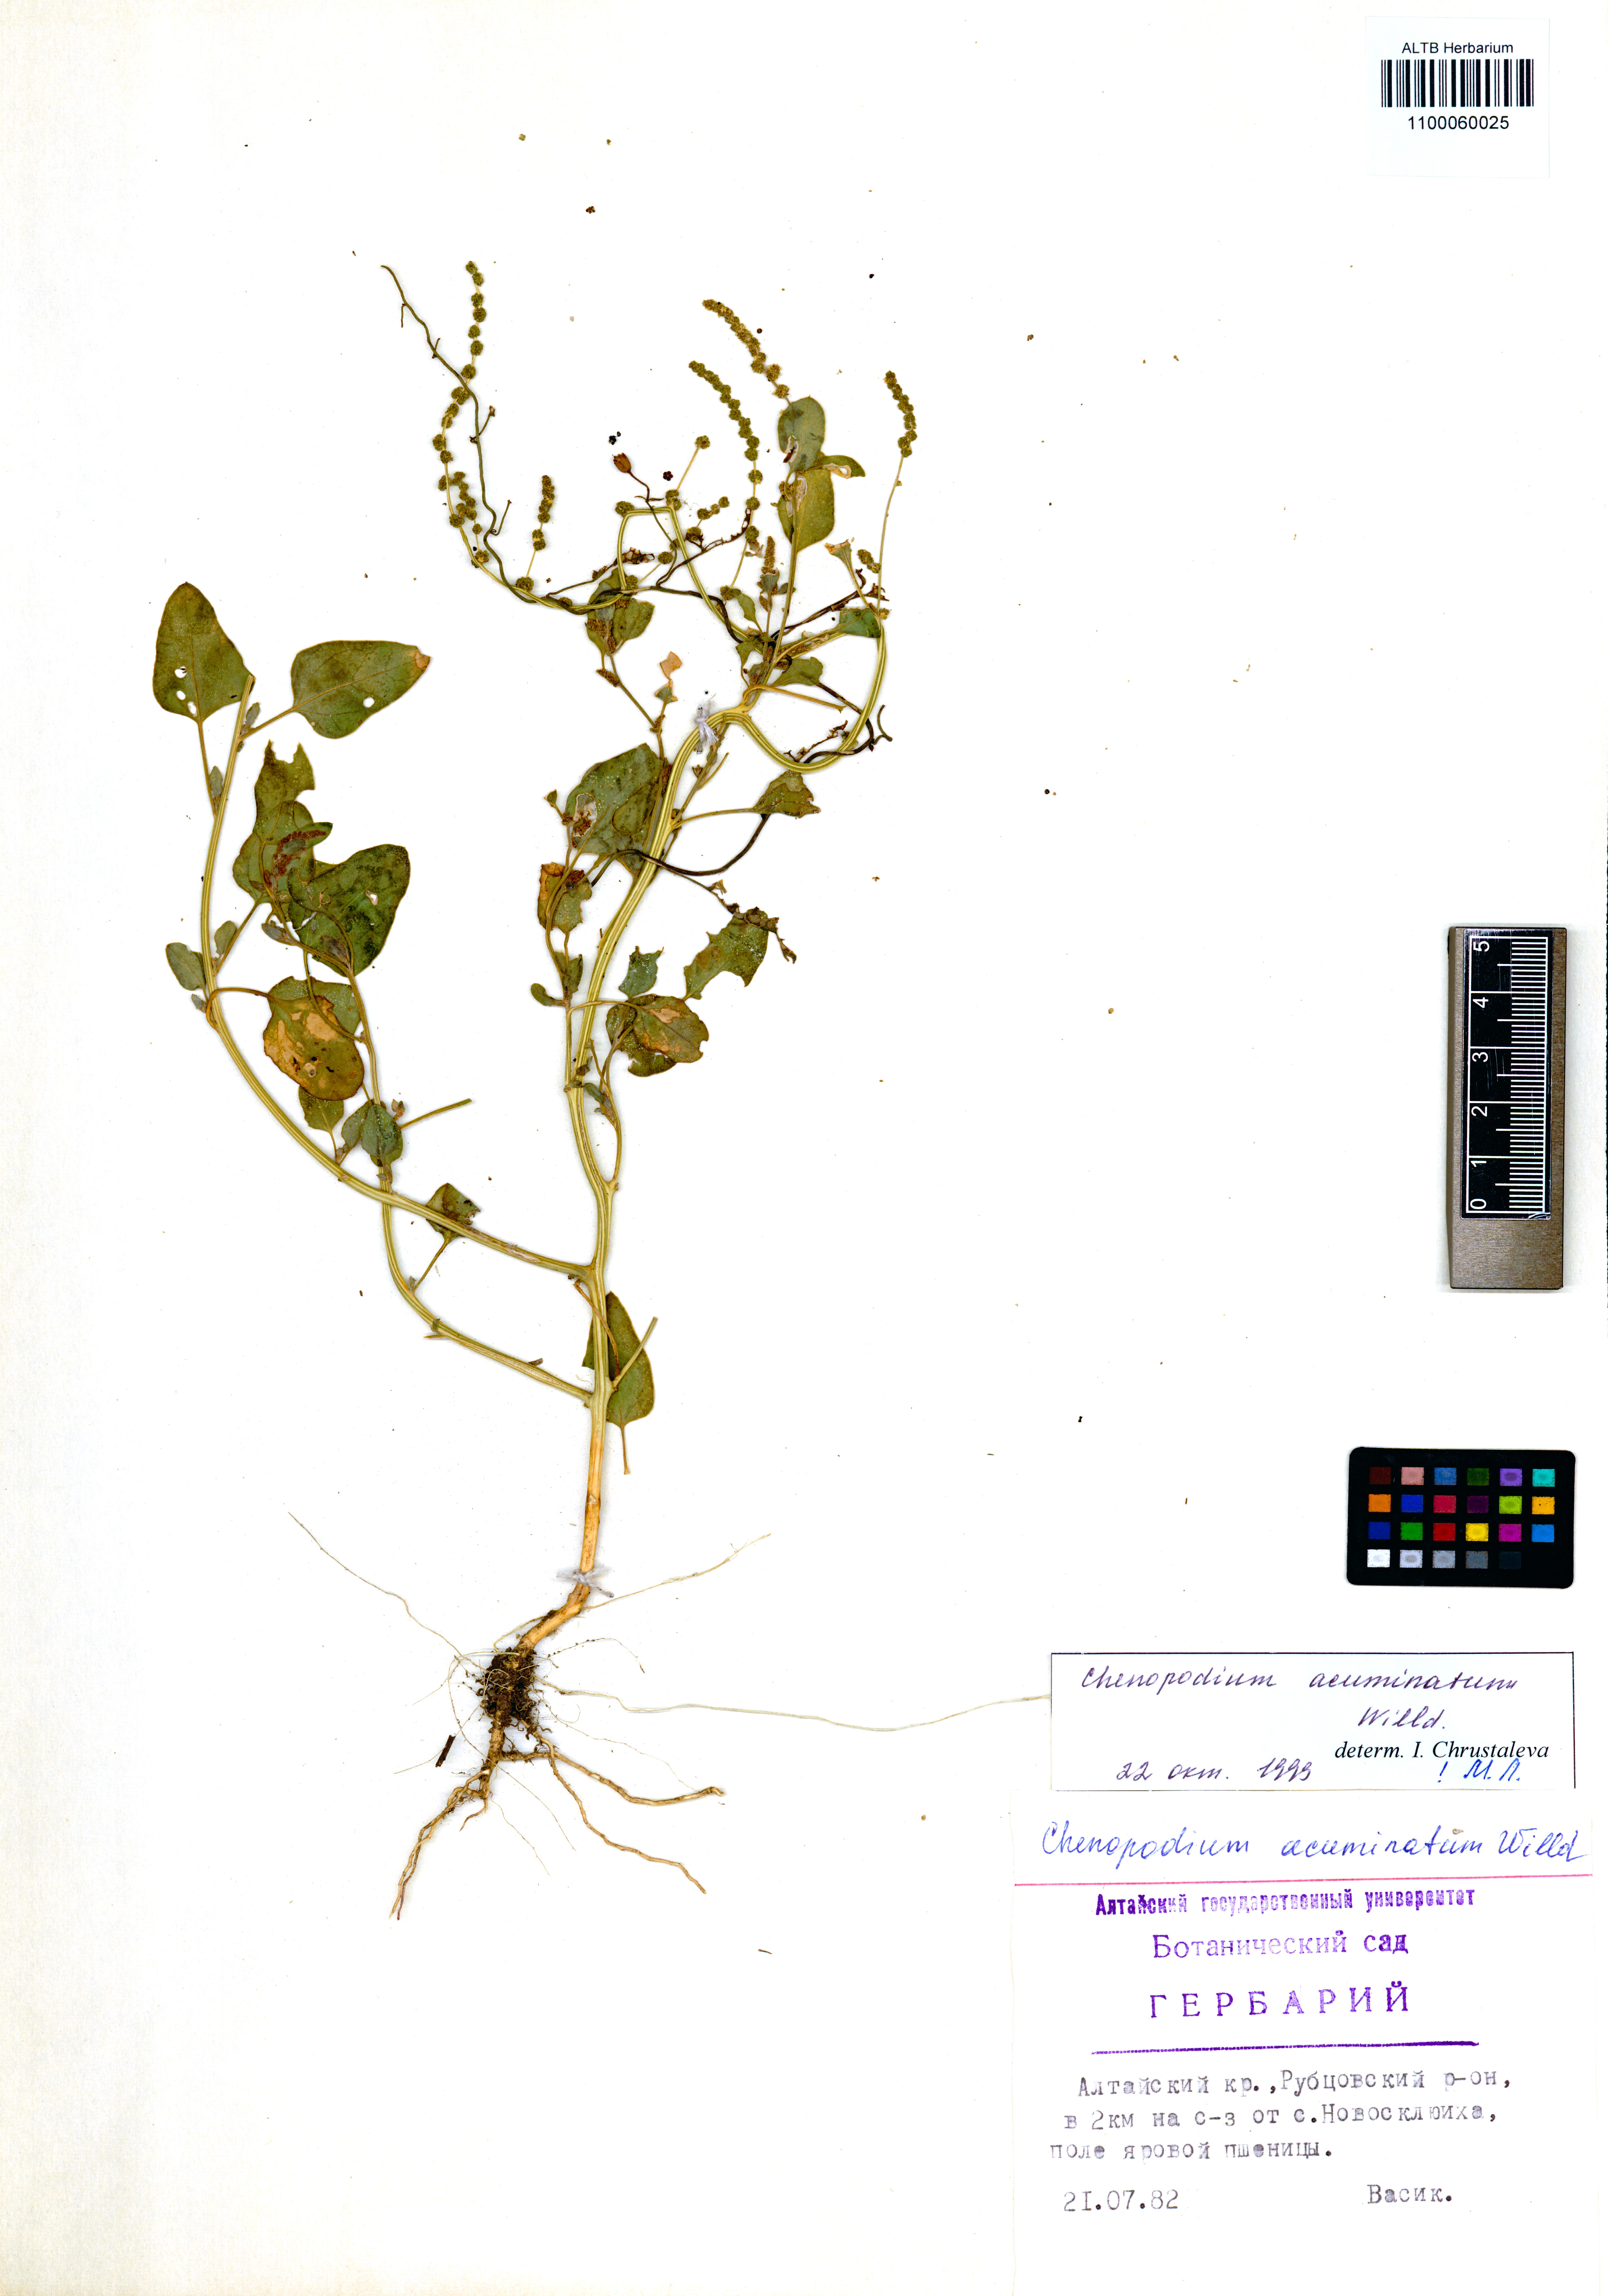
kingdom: Plantae
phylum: Tracheophyta
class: Magnoliopsida
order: Caryophyllales
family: Amaranthaceae
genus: Chenopodium
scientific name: Chenopodium acuminatum
